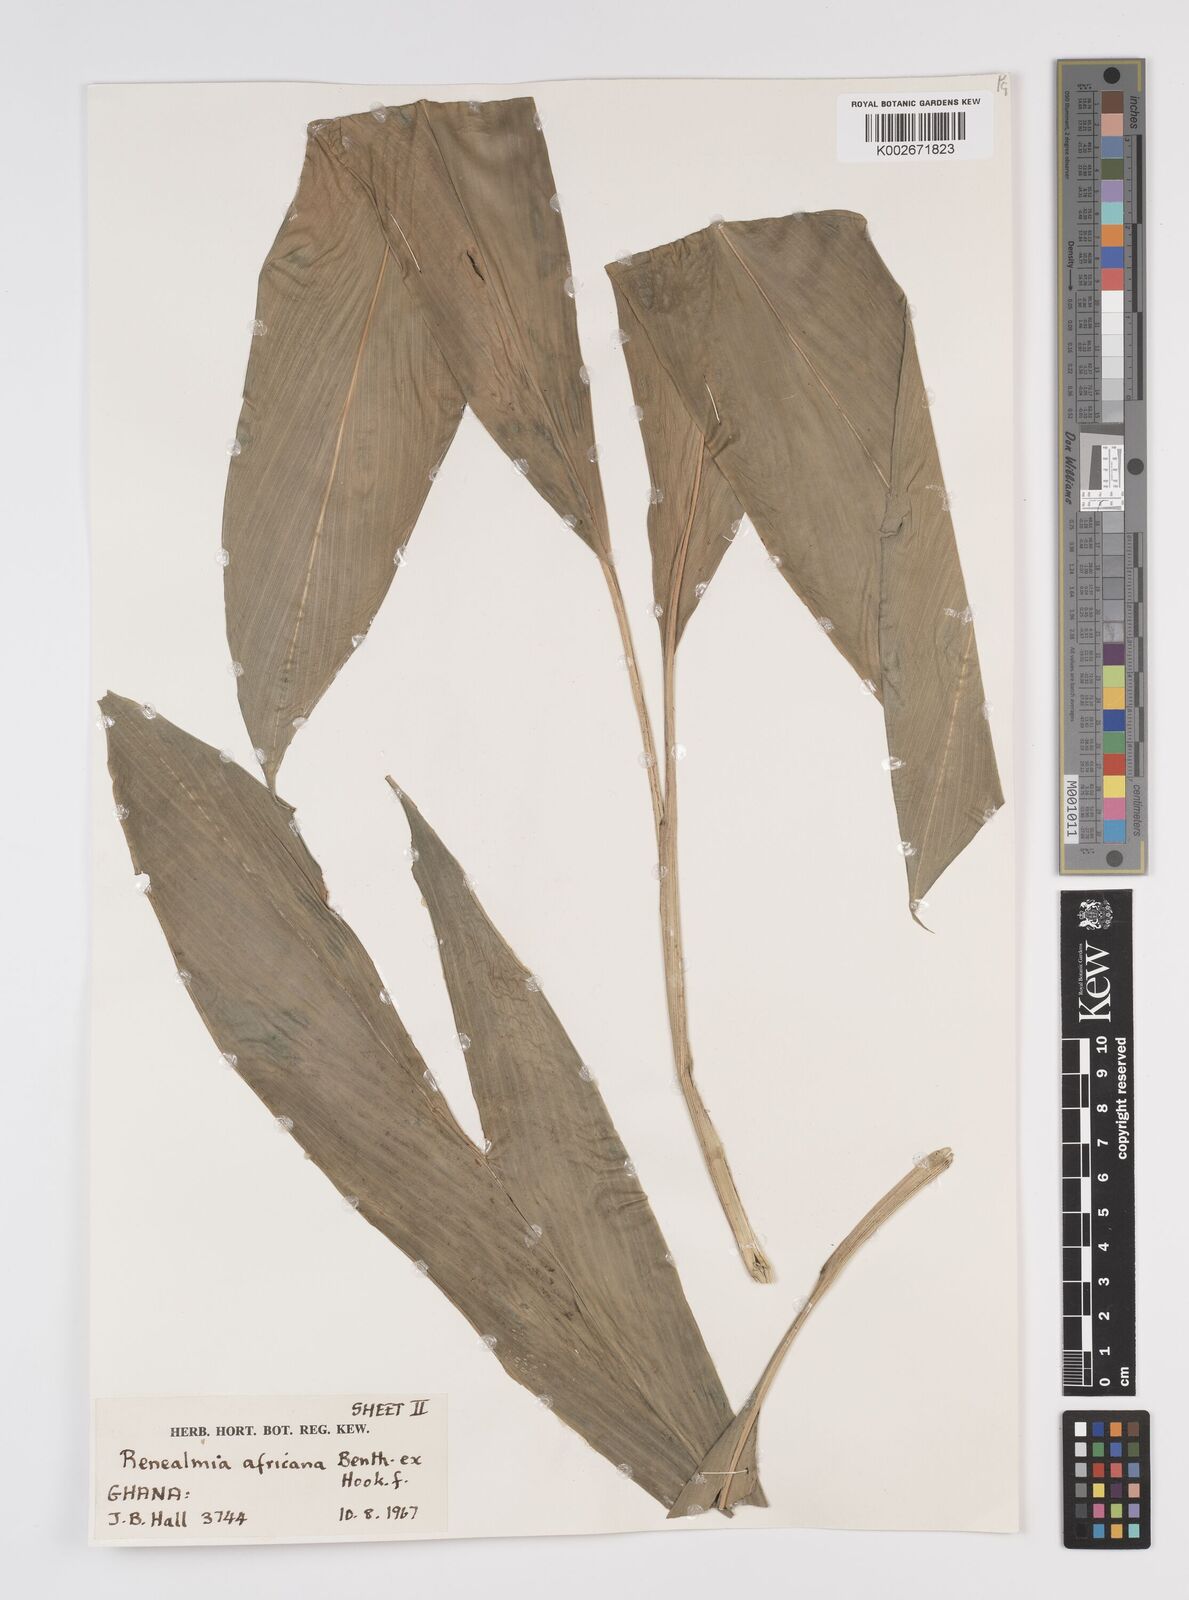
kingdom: Plantae
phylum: Tracheophyta
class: Liliopsida
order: Zingiberales
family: Zingiberaceae
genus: Renealmia
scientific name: Renealmia africana
